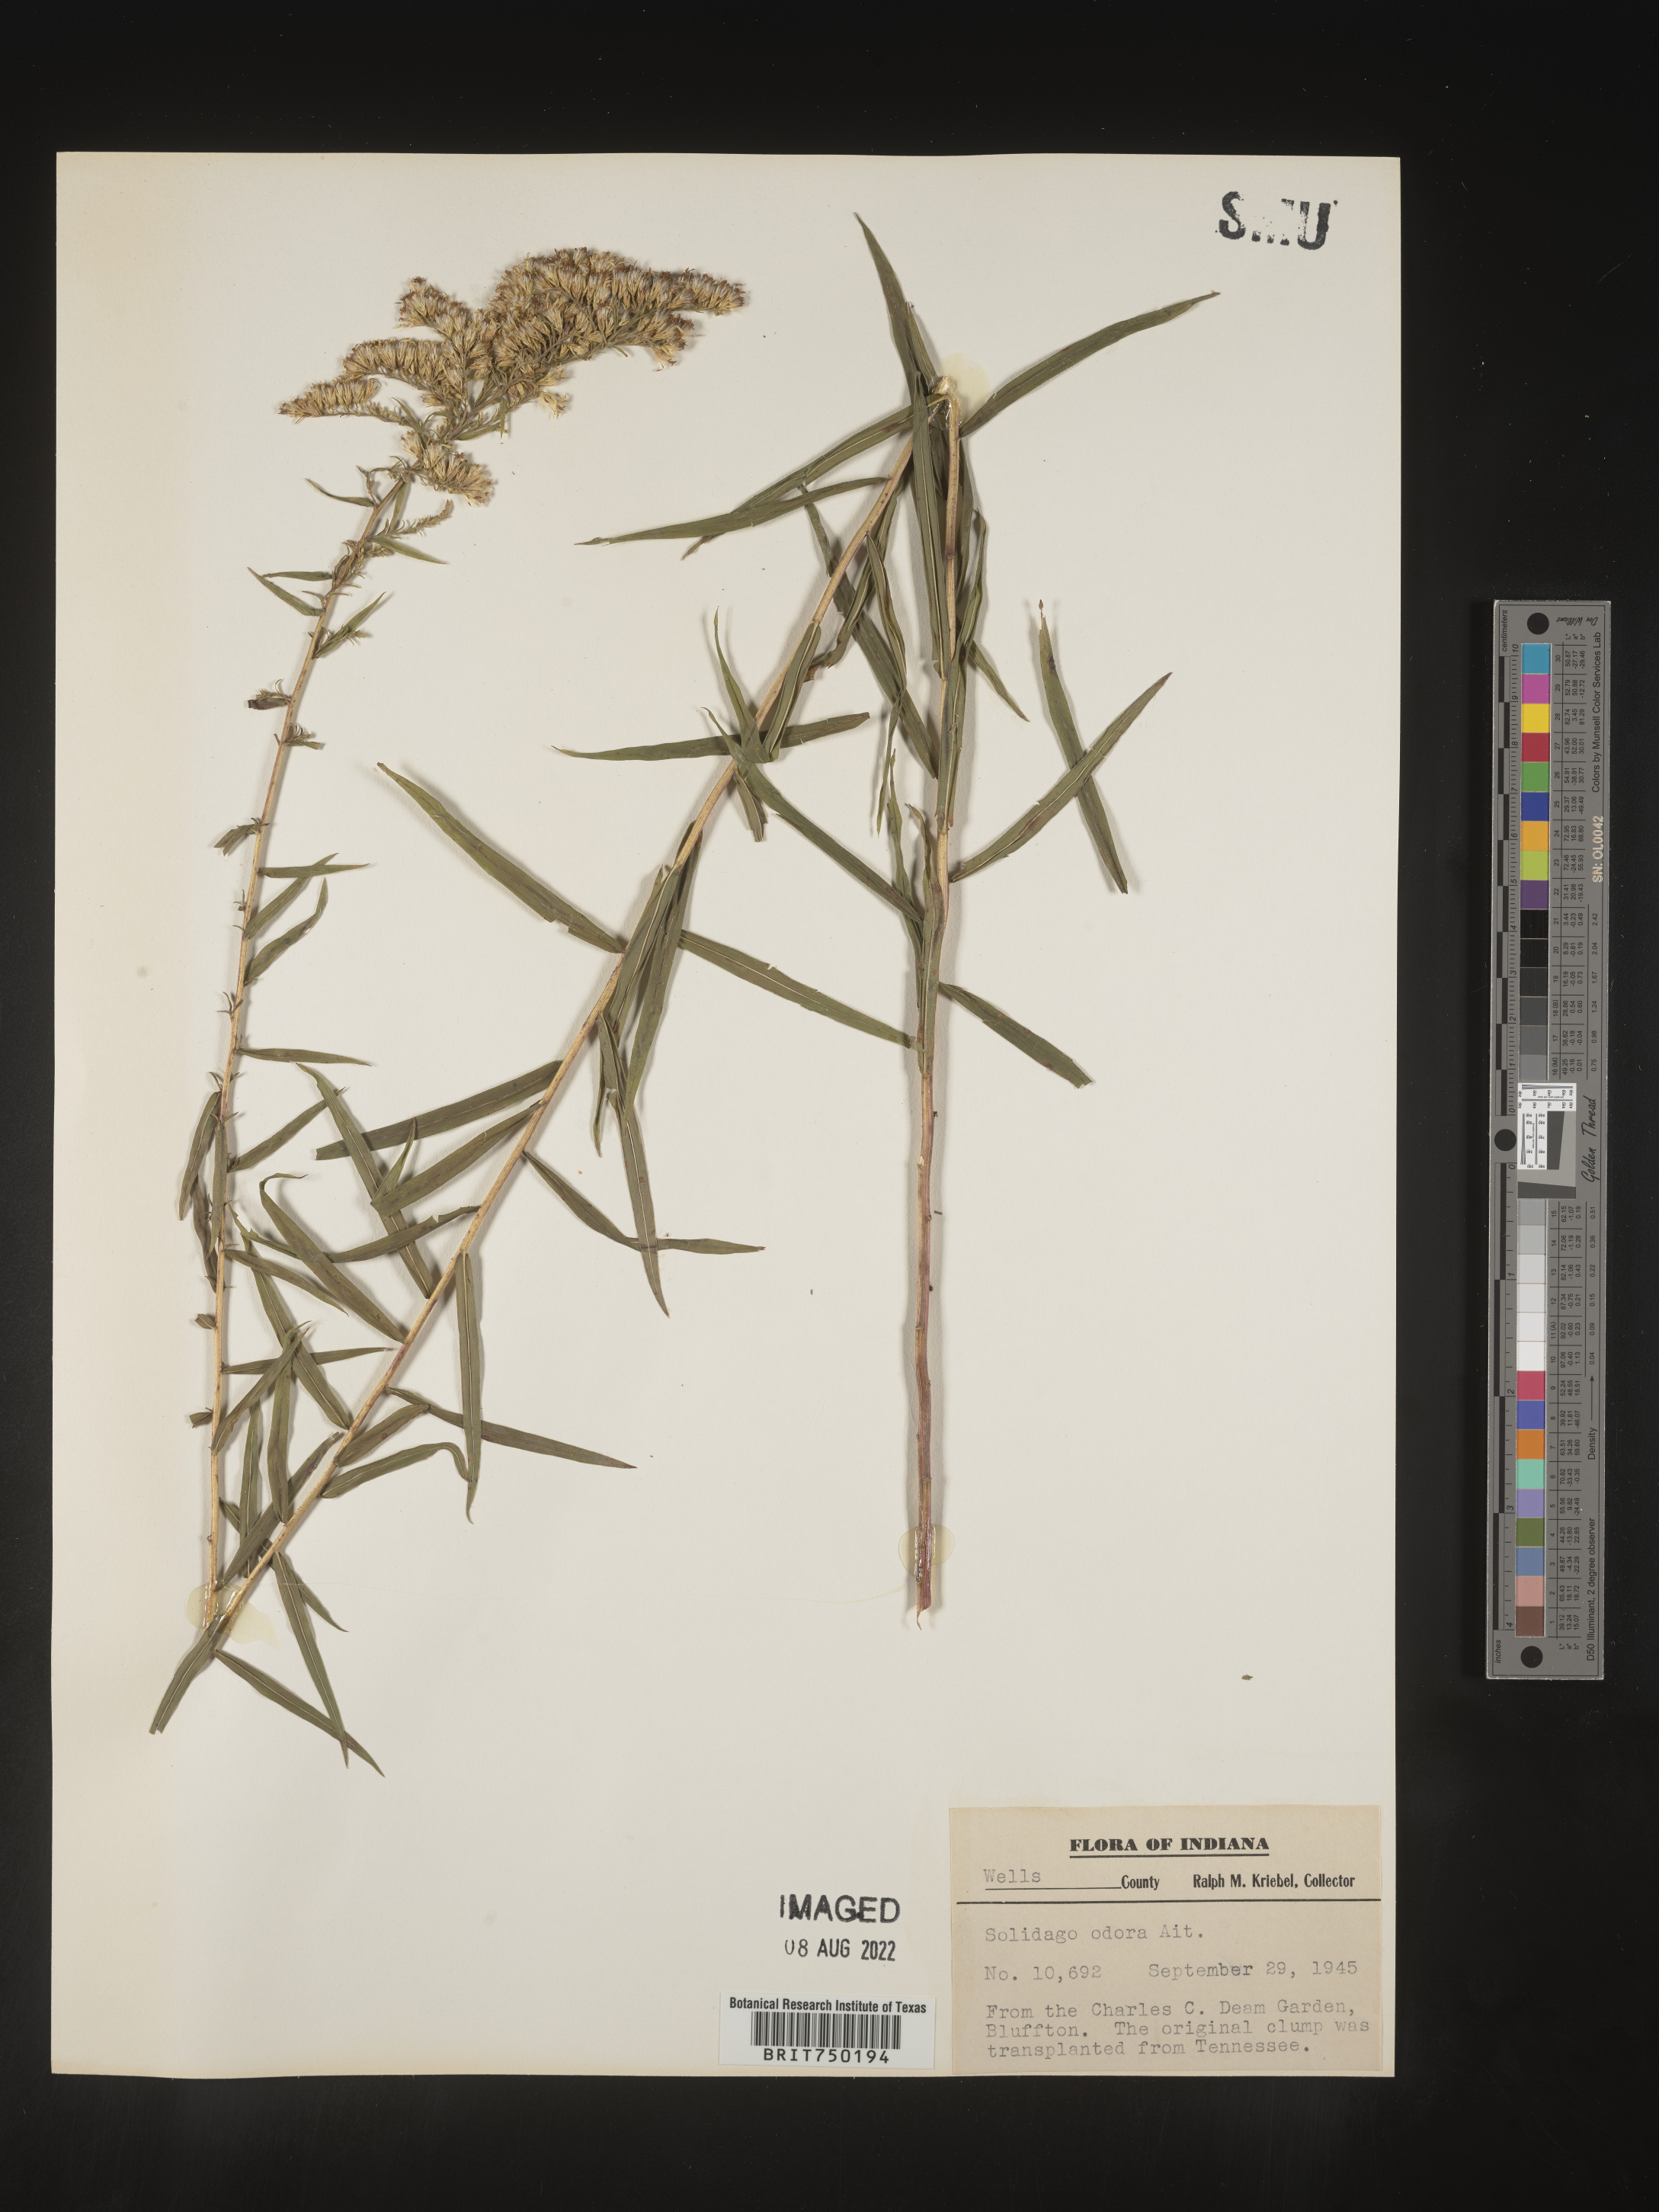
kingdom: Plantae
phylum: Tracheophyta
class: Magnoliopsida
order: Asterales
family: Asteraceae
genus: Solidago
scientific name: Solidago
